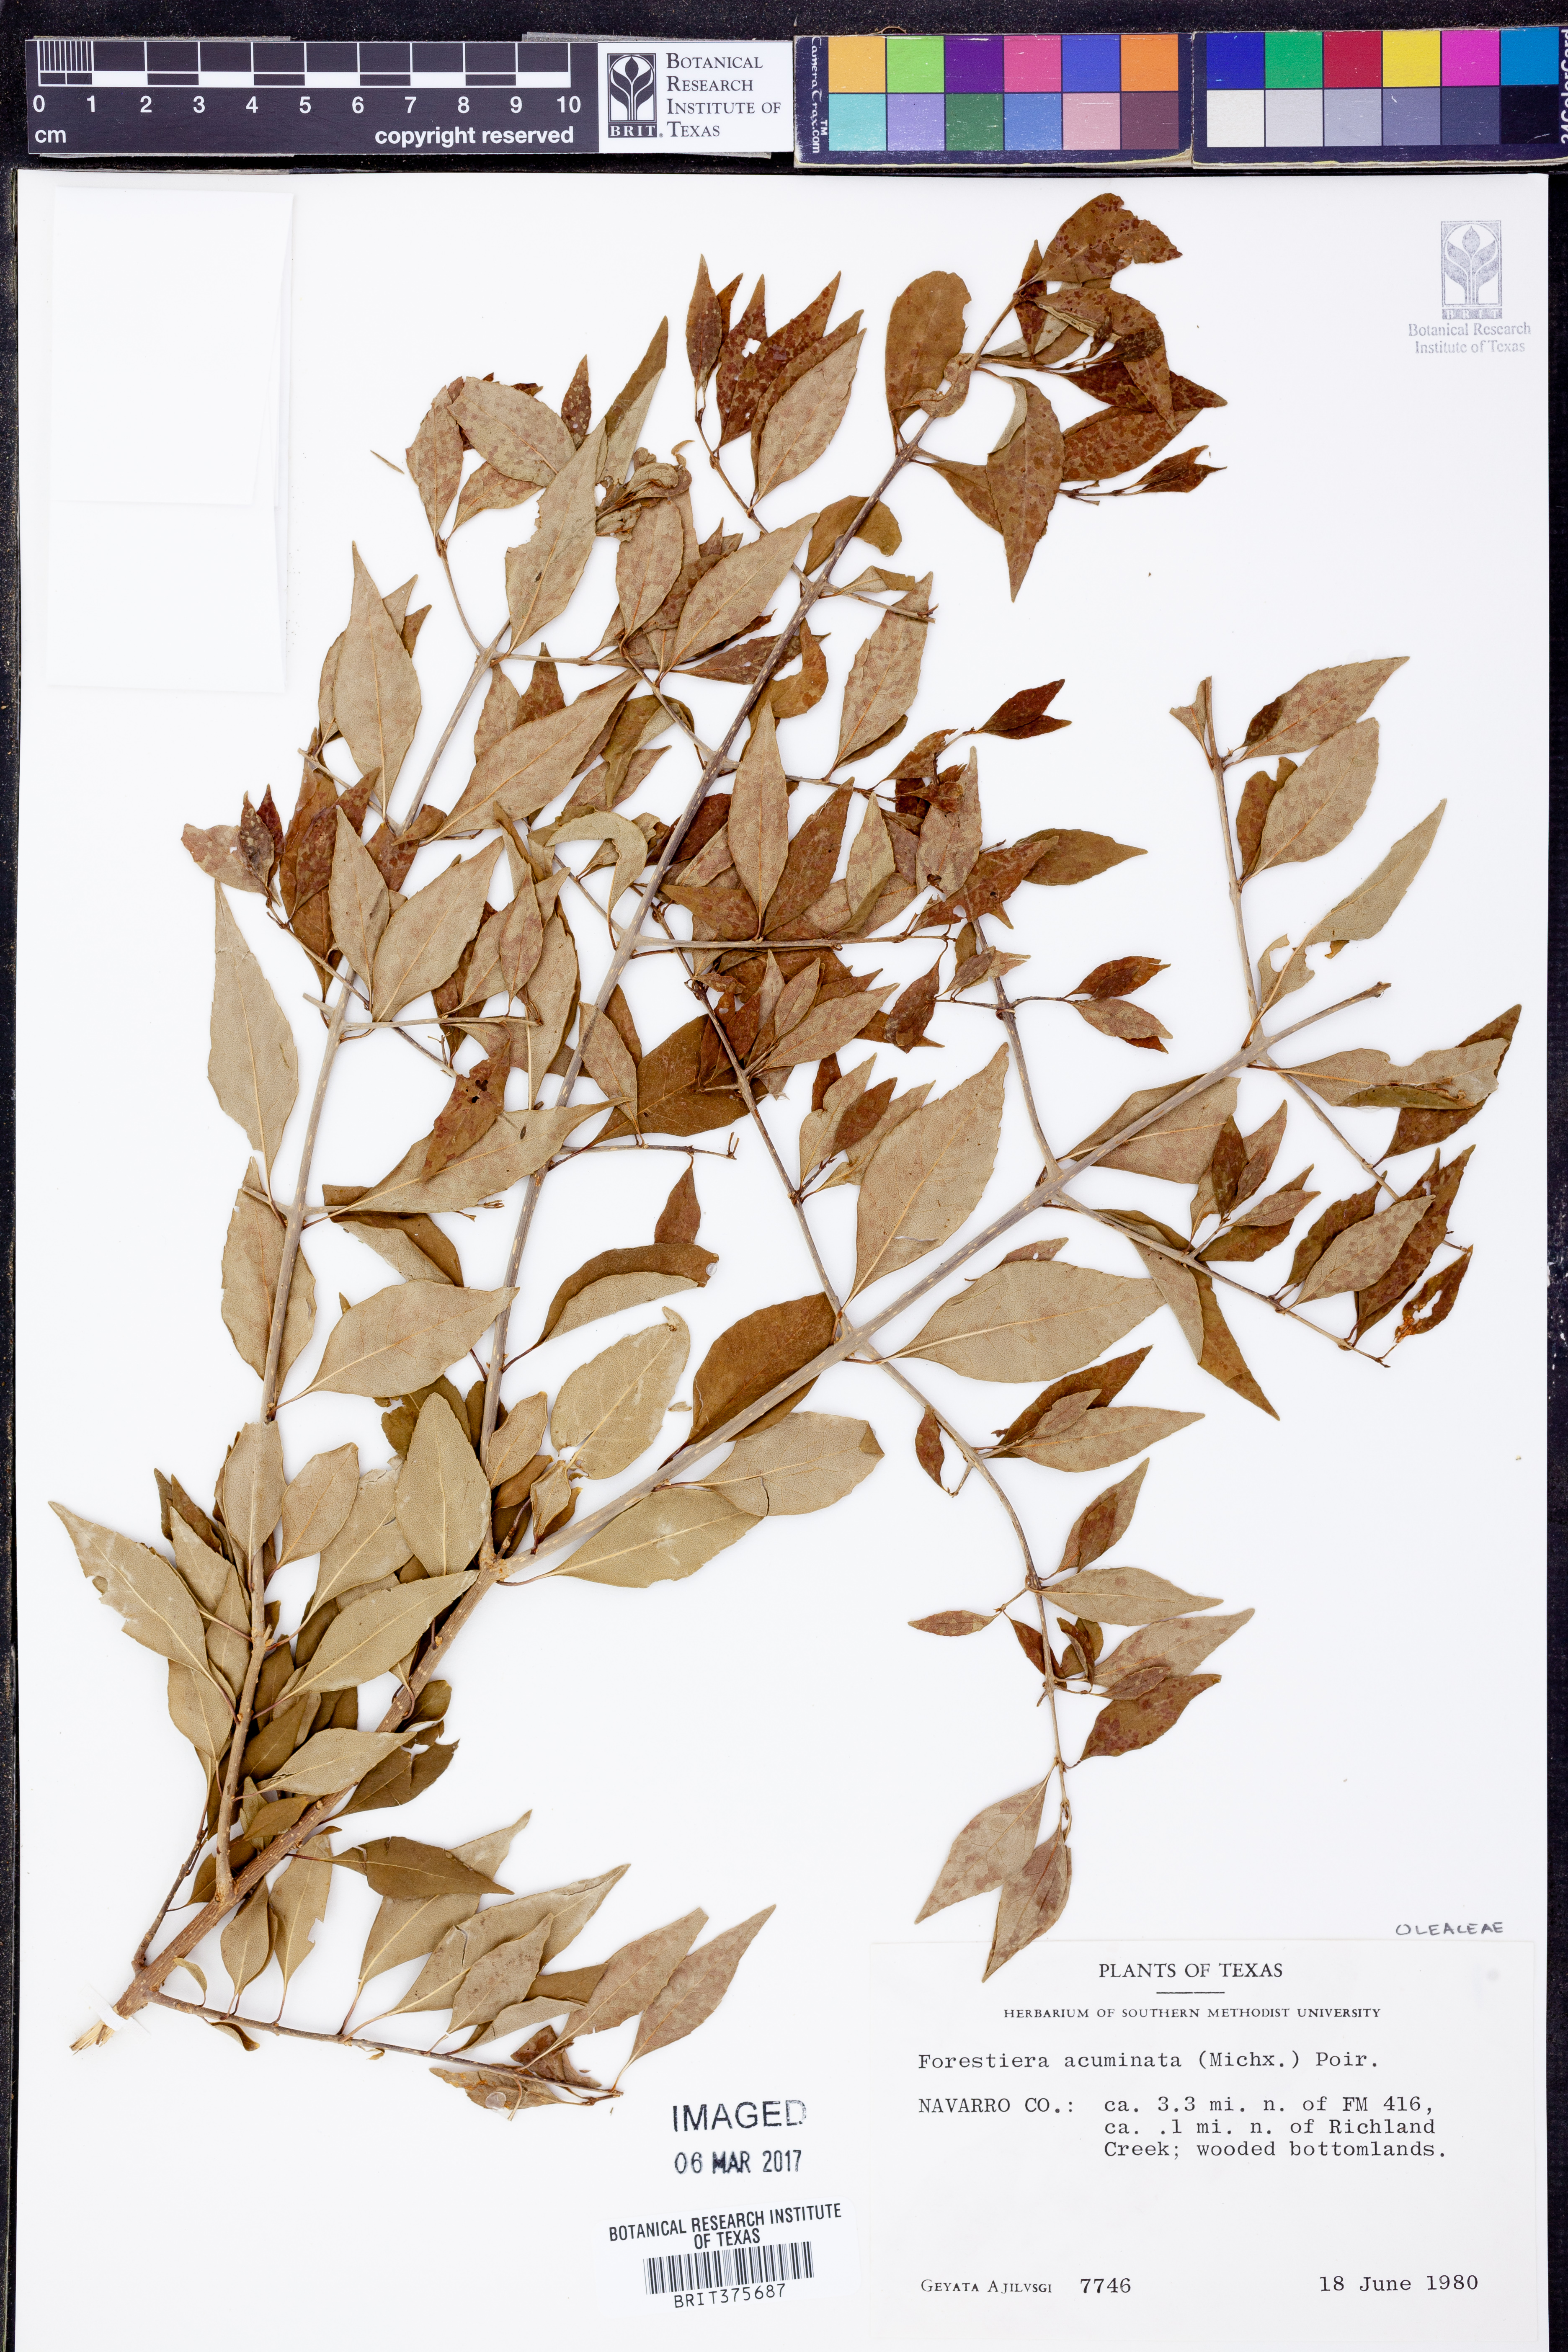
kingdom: Plantae
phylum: Tracheophyta
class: Magnoliopsida
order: Lamiales
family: Oleaceae
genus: Forestiera
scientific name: Forestiera acuminata
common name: Swamp-privet
